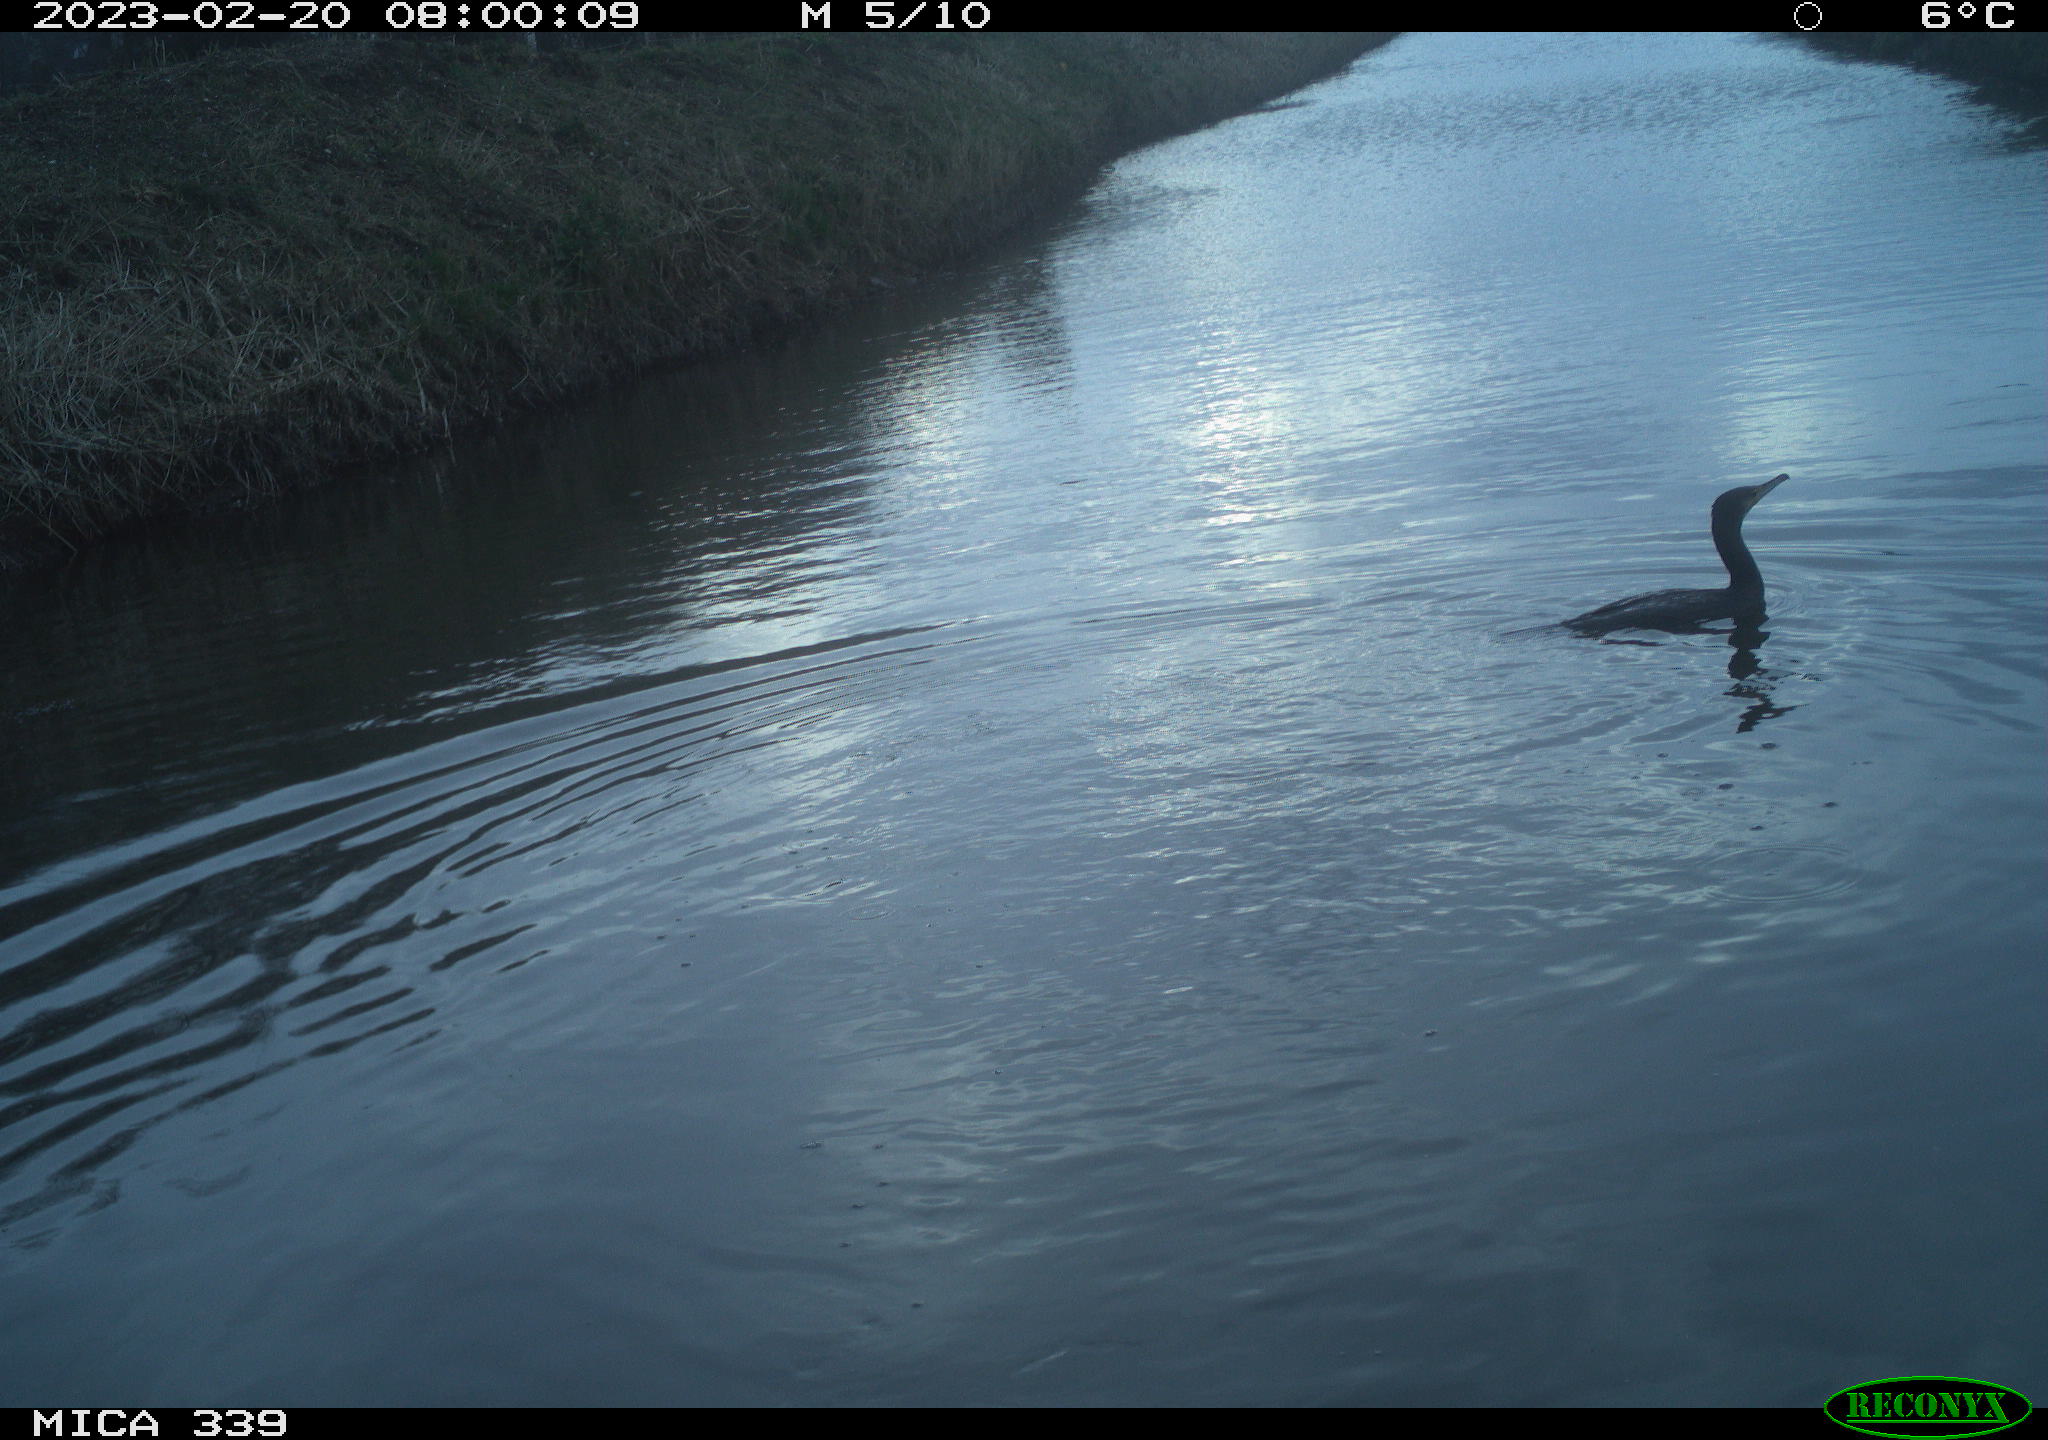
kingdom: Animalia
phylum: Chordata
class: Aves
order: Suliformes
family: Phalacrocoracidae
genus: Phalacrocorax
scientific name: Phalacrocorax carbo
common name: Great cormorant
